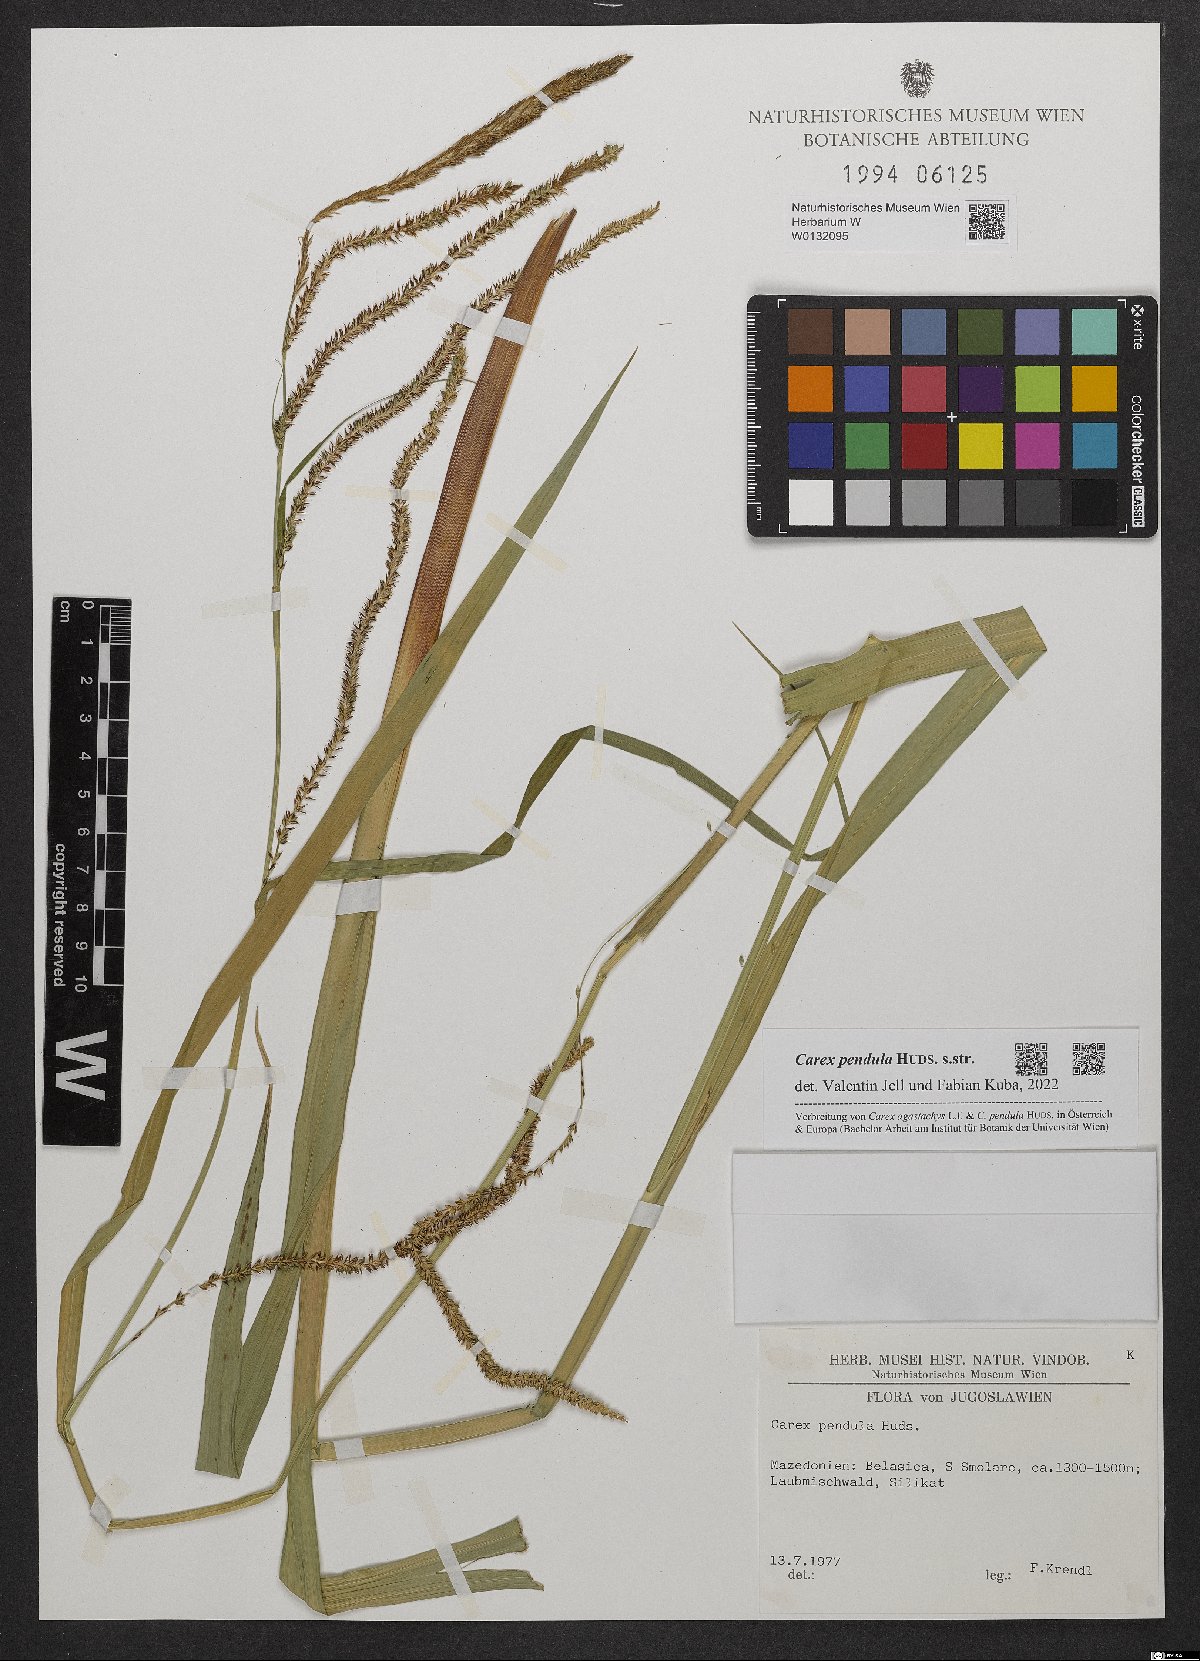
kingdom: Plantae
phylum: Tracheophyta
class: Liliopsida
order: Poales
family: Cyperaceae
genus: Carex
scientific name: Carex pendula
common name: Pendulous sedge
